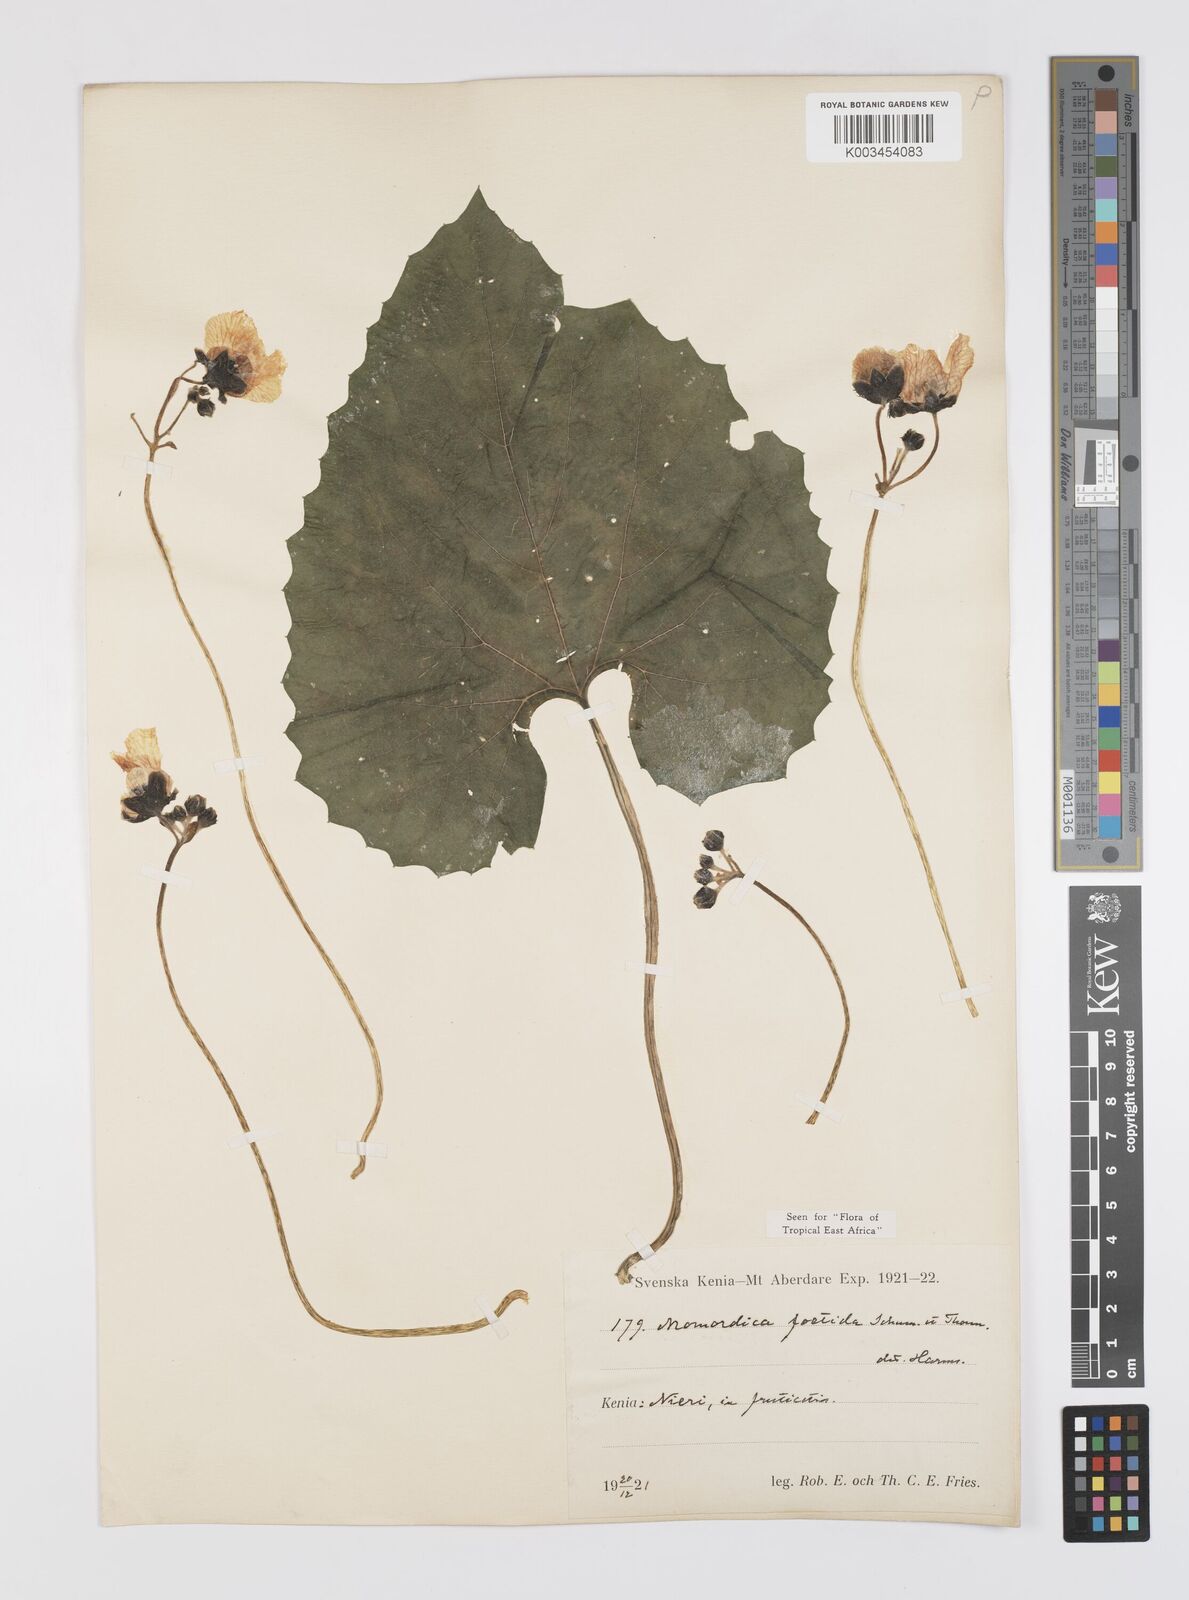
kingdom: Plantae
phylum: Tracheophyta
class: Magnoliopsida
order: Cucurbitales
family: Cucurbitaceae
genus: Momordica
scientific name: Momordica foetida
